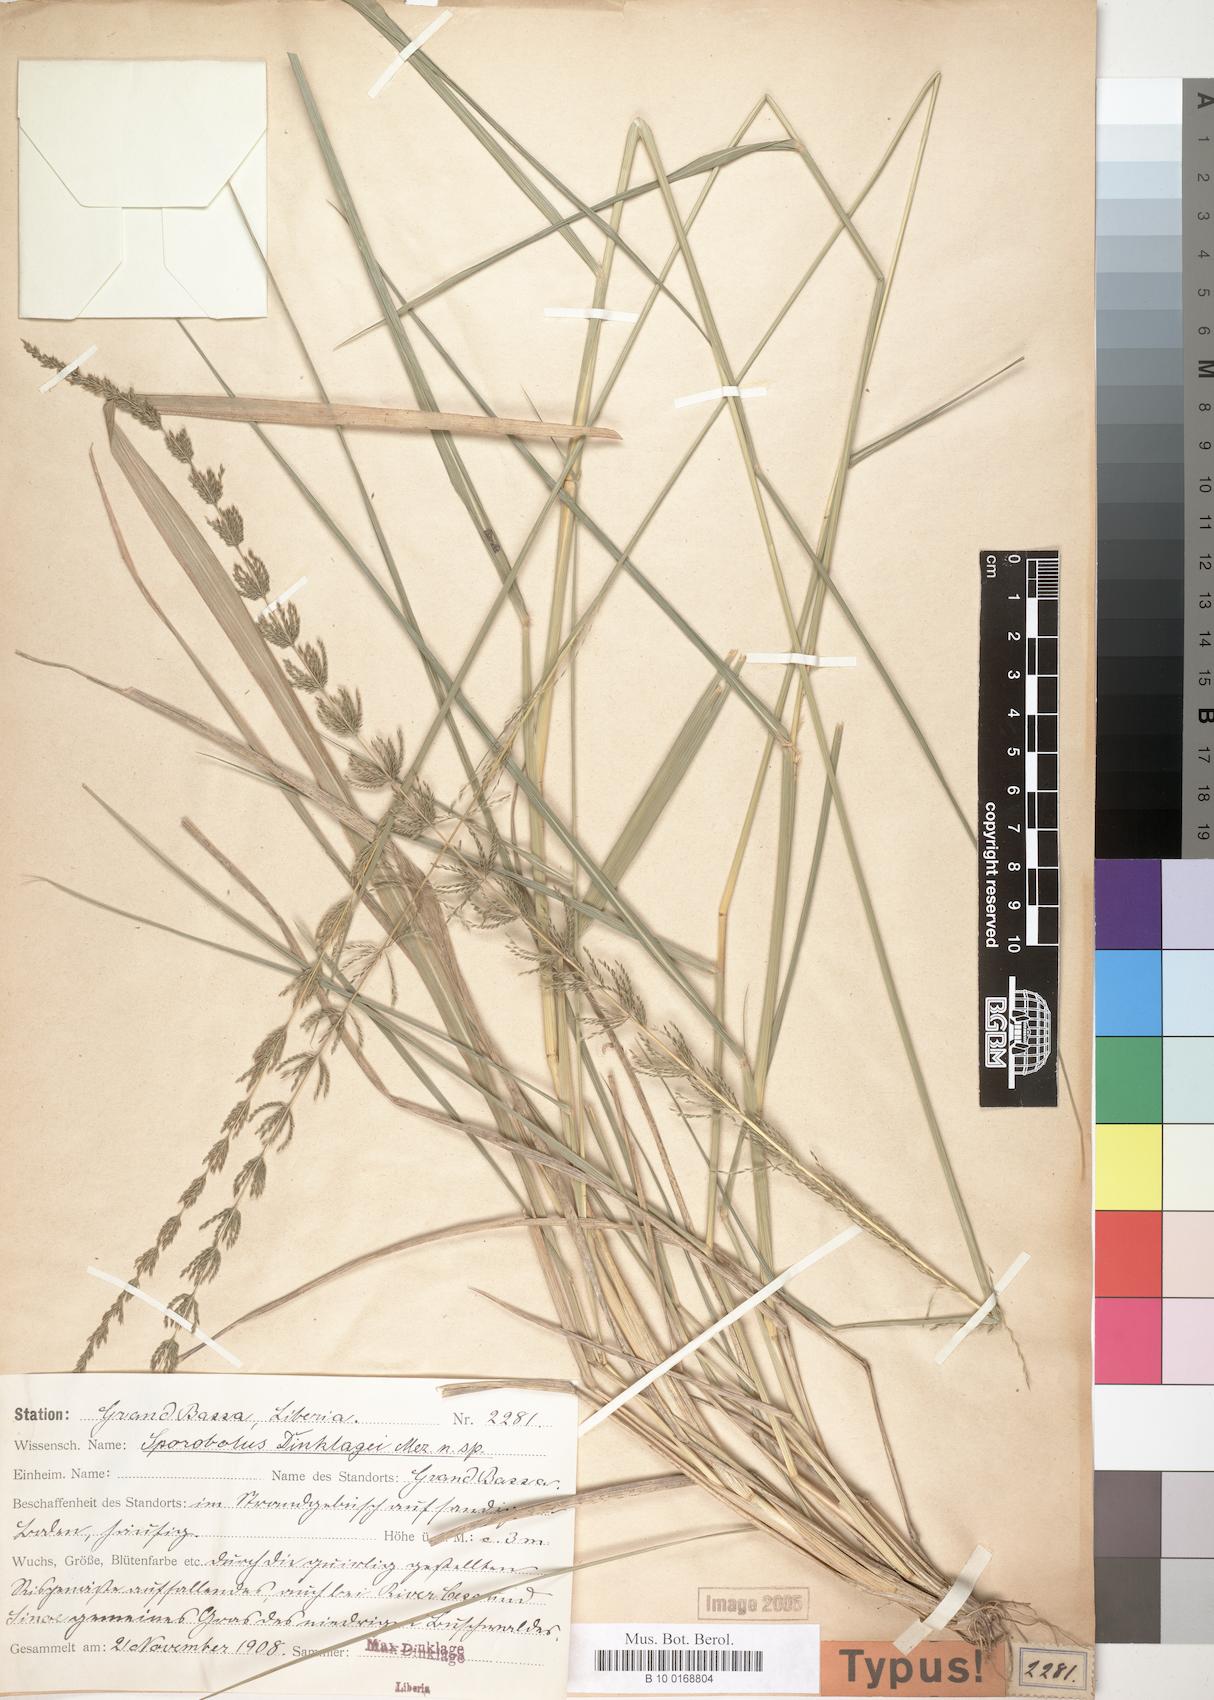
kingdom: Plantae
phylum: Tracheophyta
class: Liliopsida
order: Poales
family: Poaceae
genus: Sporobolus
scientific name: Sporobolus dinklagei
